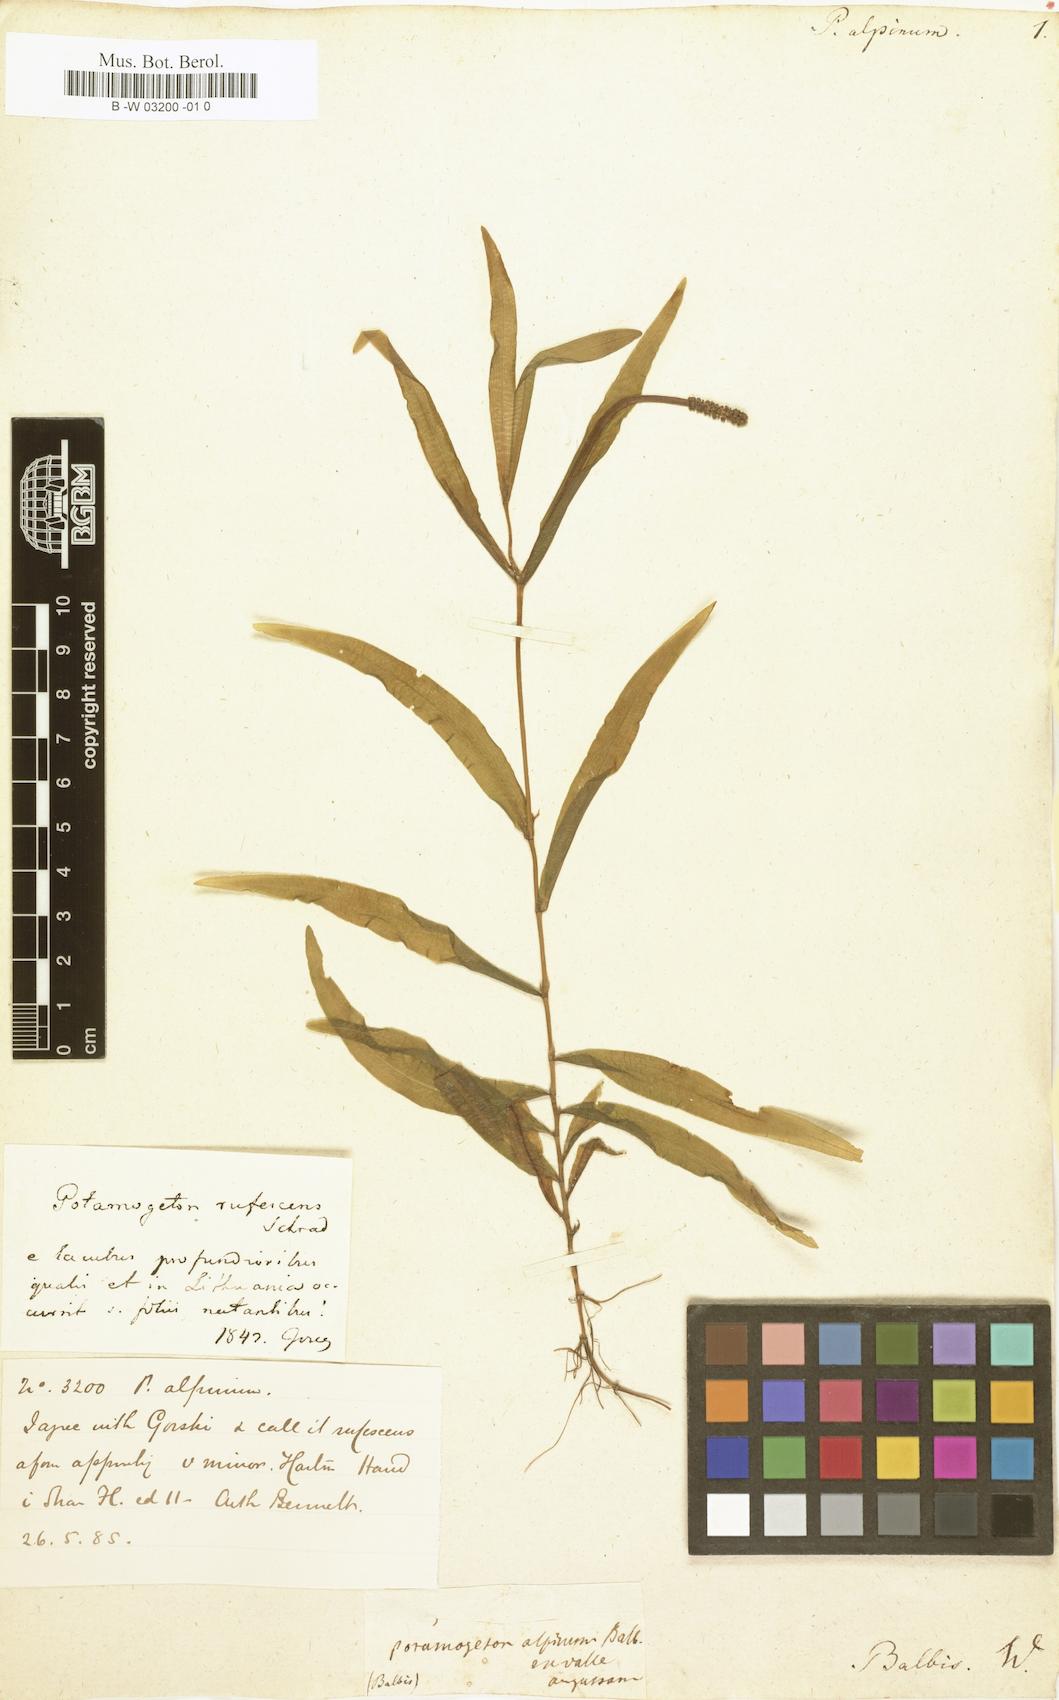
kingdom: Plantae
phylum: Tracheophyta
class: Liliopsida
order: Alismatales
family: Potamogetonaceae
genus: Potamogeton
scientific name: Potamogeton alpinus
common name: Red pondweed
